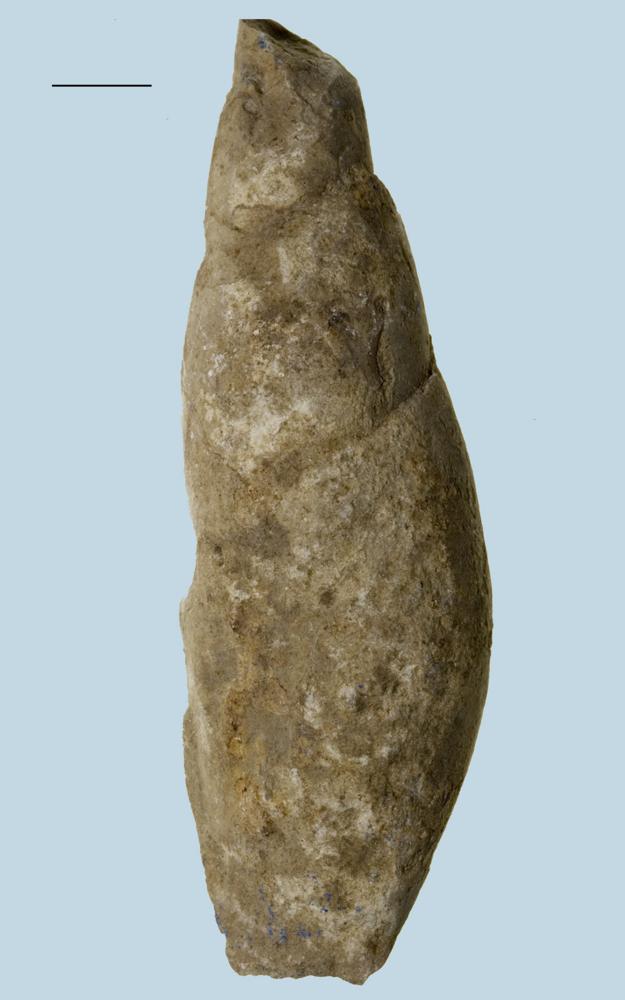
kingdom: Animalia
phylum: Mollusca
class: Gastropoda
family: Subulitidae
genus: Subulites
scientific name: Subulites Phasianella gigas
